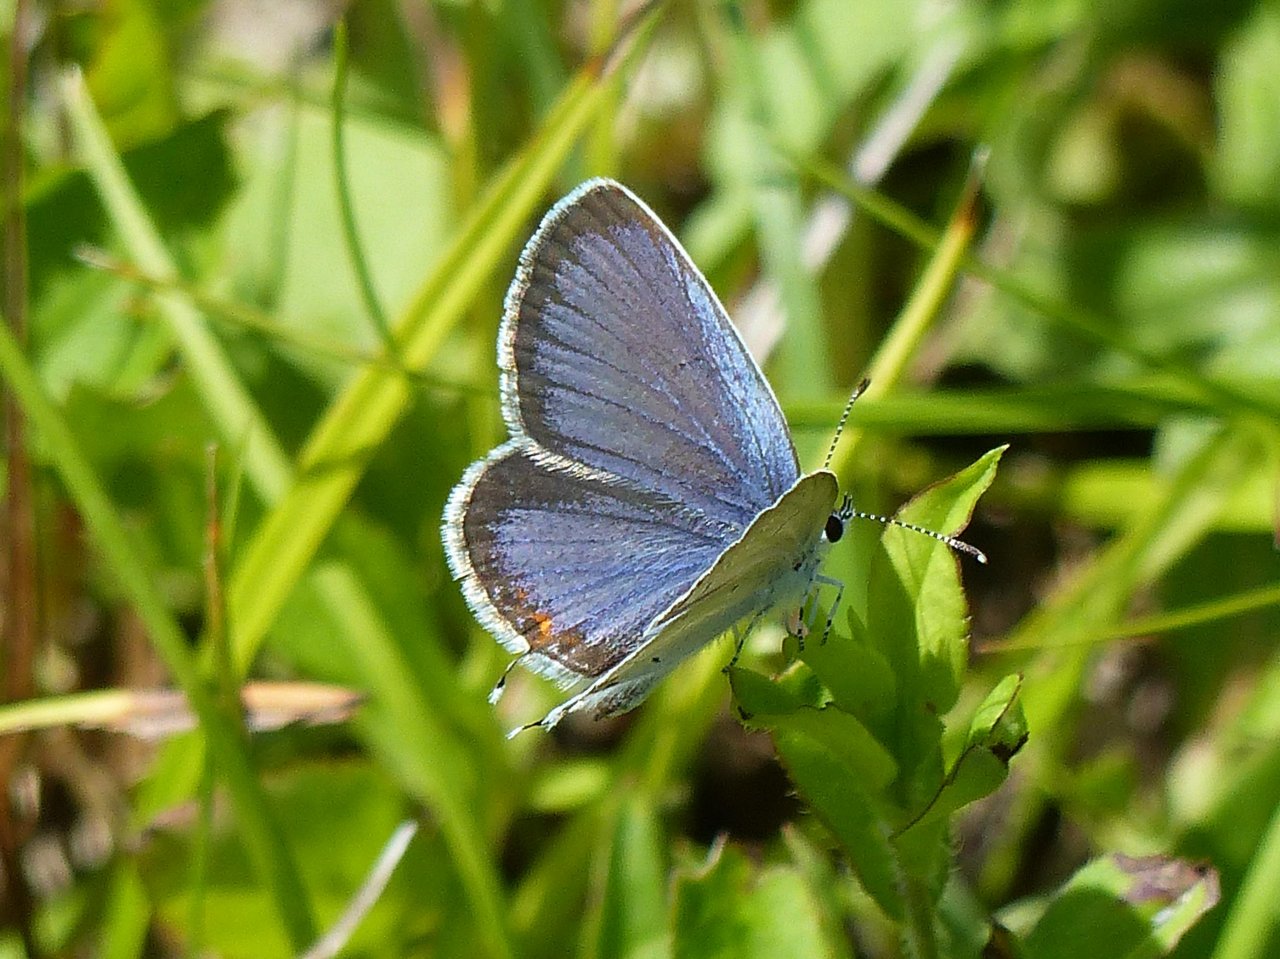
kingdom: Animalia
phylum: Arthropoda
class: Insecta
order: Lepidoptera
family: Lycaenidae
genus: Elkalyce
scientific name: Elkalyce comyntas
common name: Eastern Tailed-Blue
